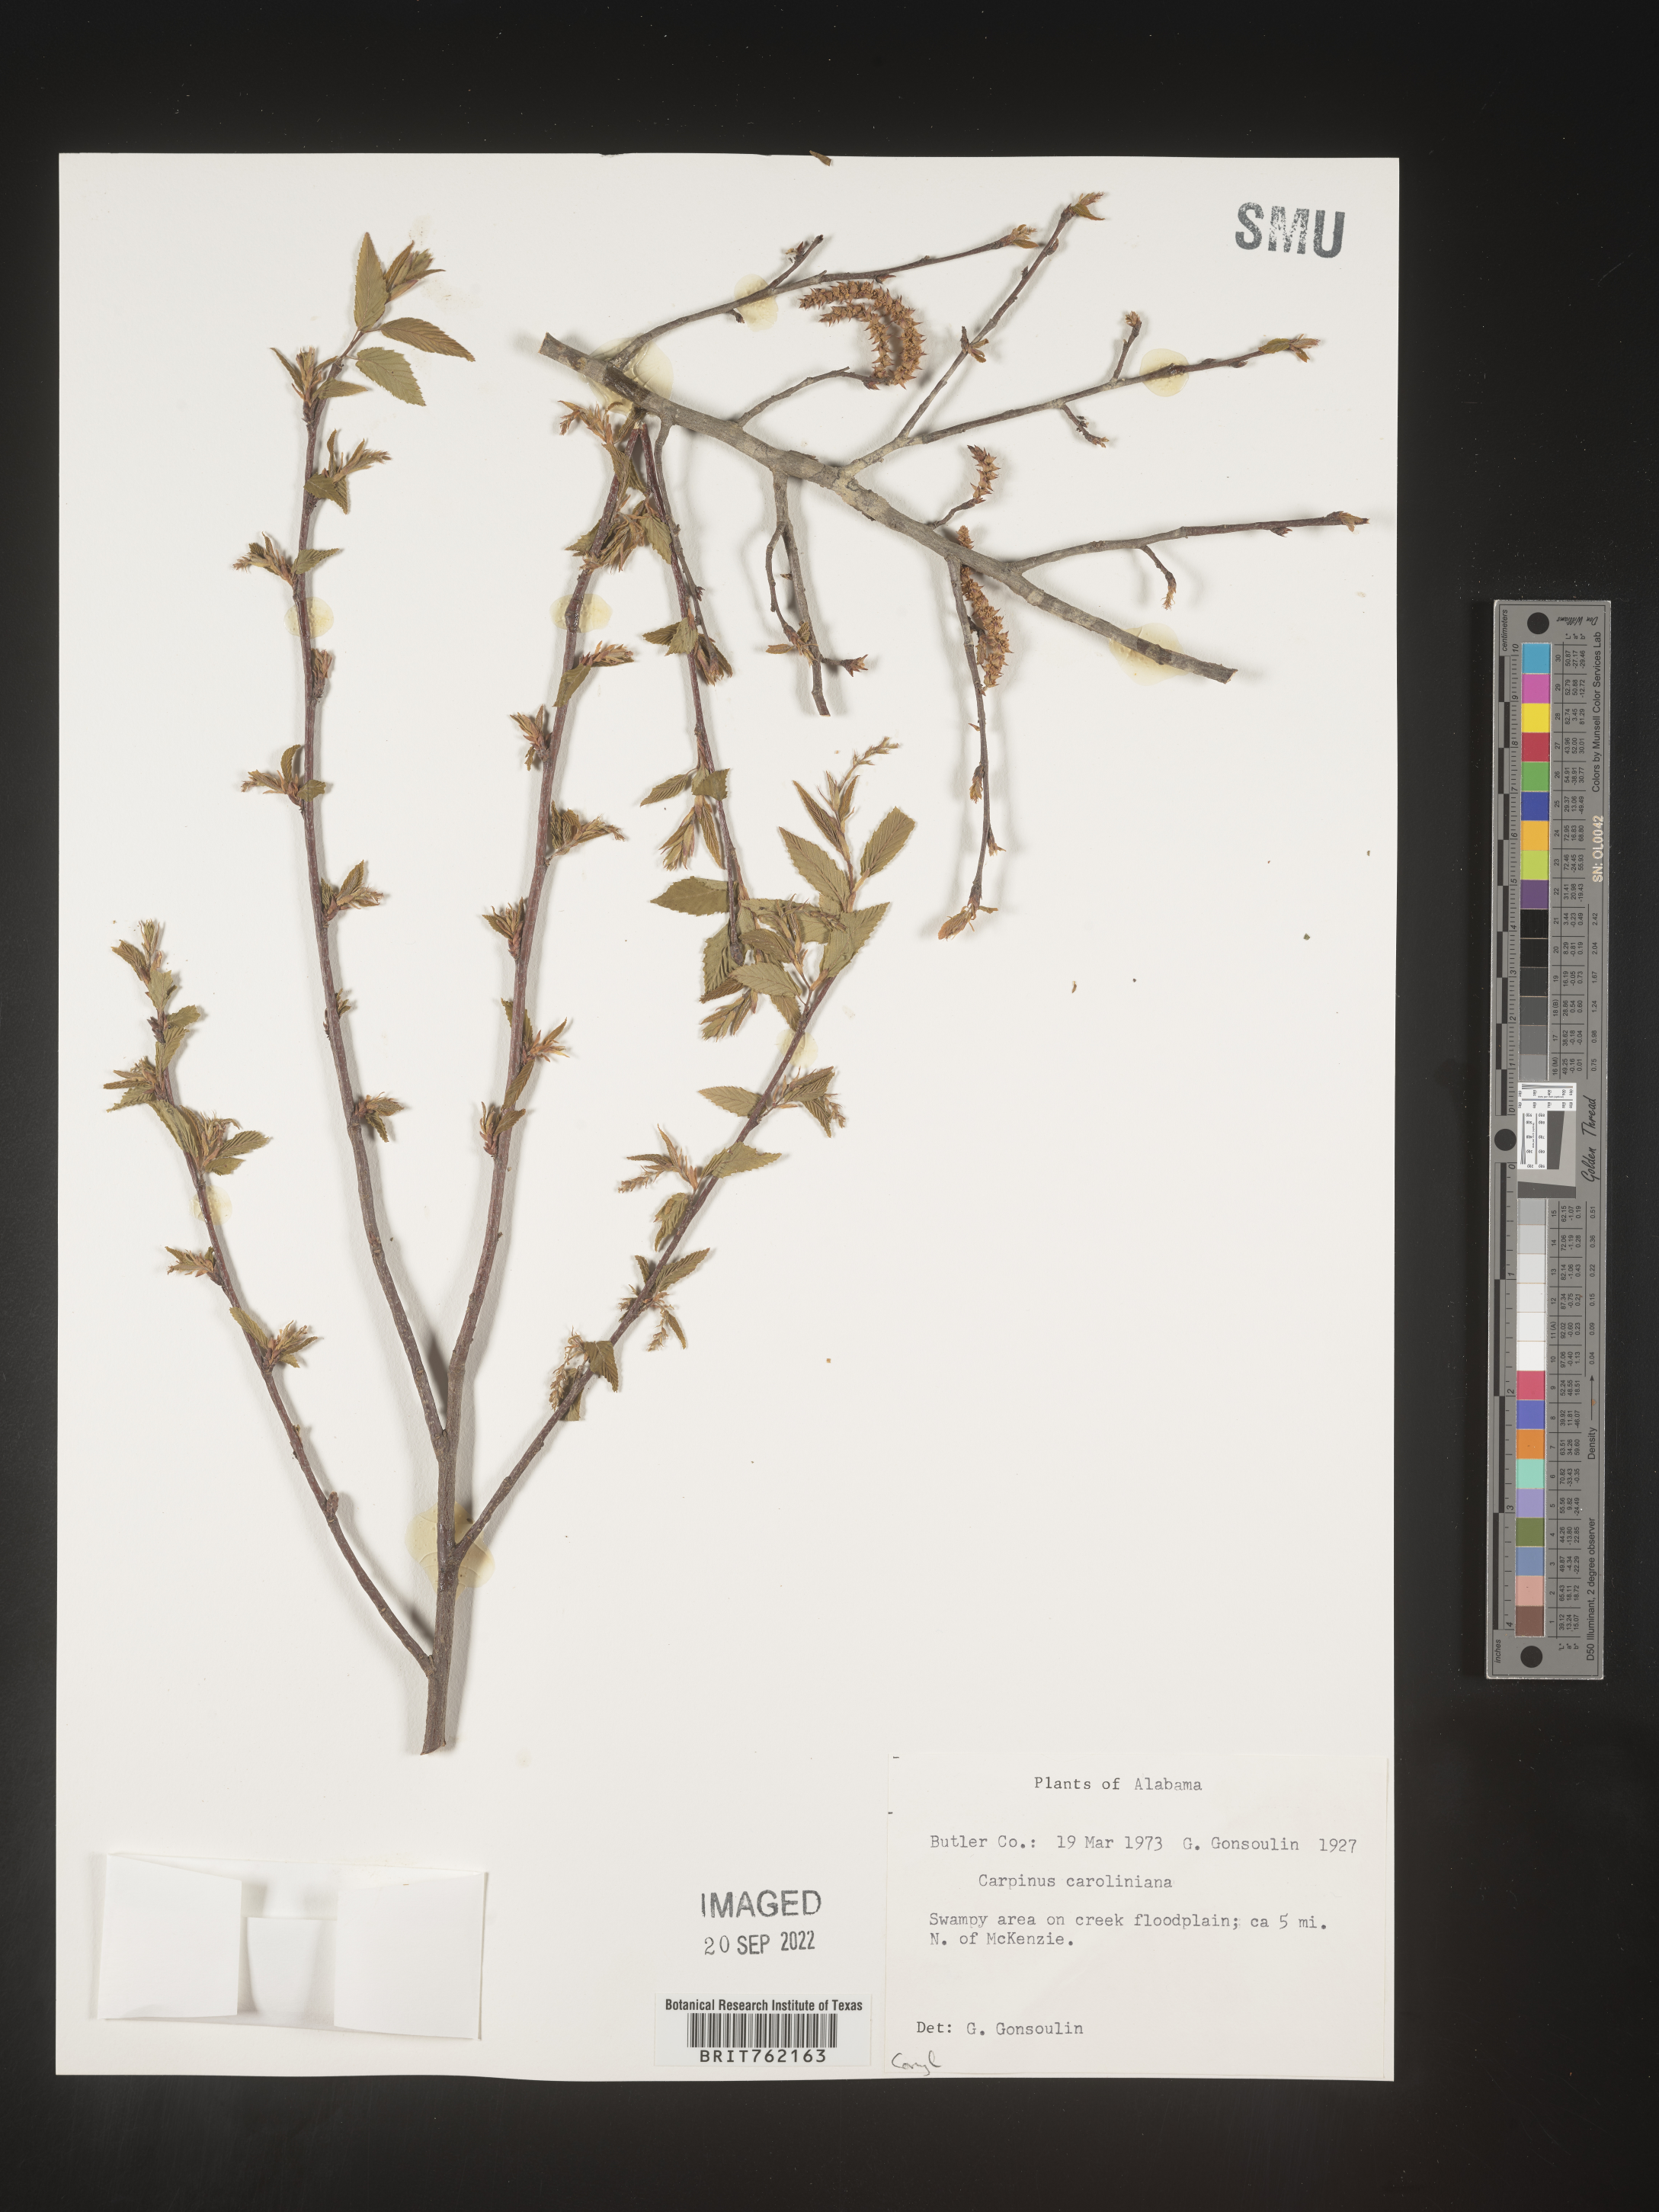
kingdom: Plantae
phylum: Tracheophyta
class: Magnoliopsida
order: Fagales
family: Betulaceae
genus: Carpinus
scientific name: Carpinus caroliniana
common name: American hornbeam
